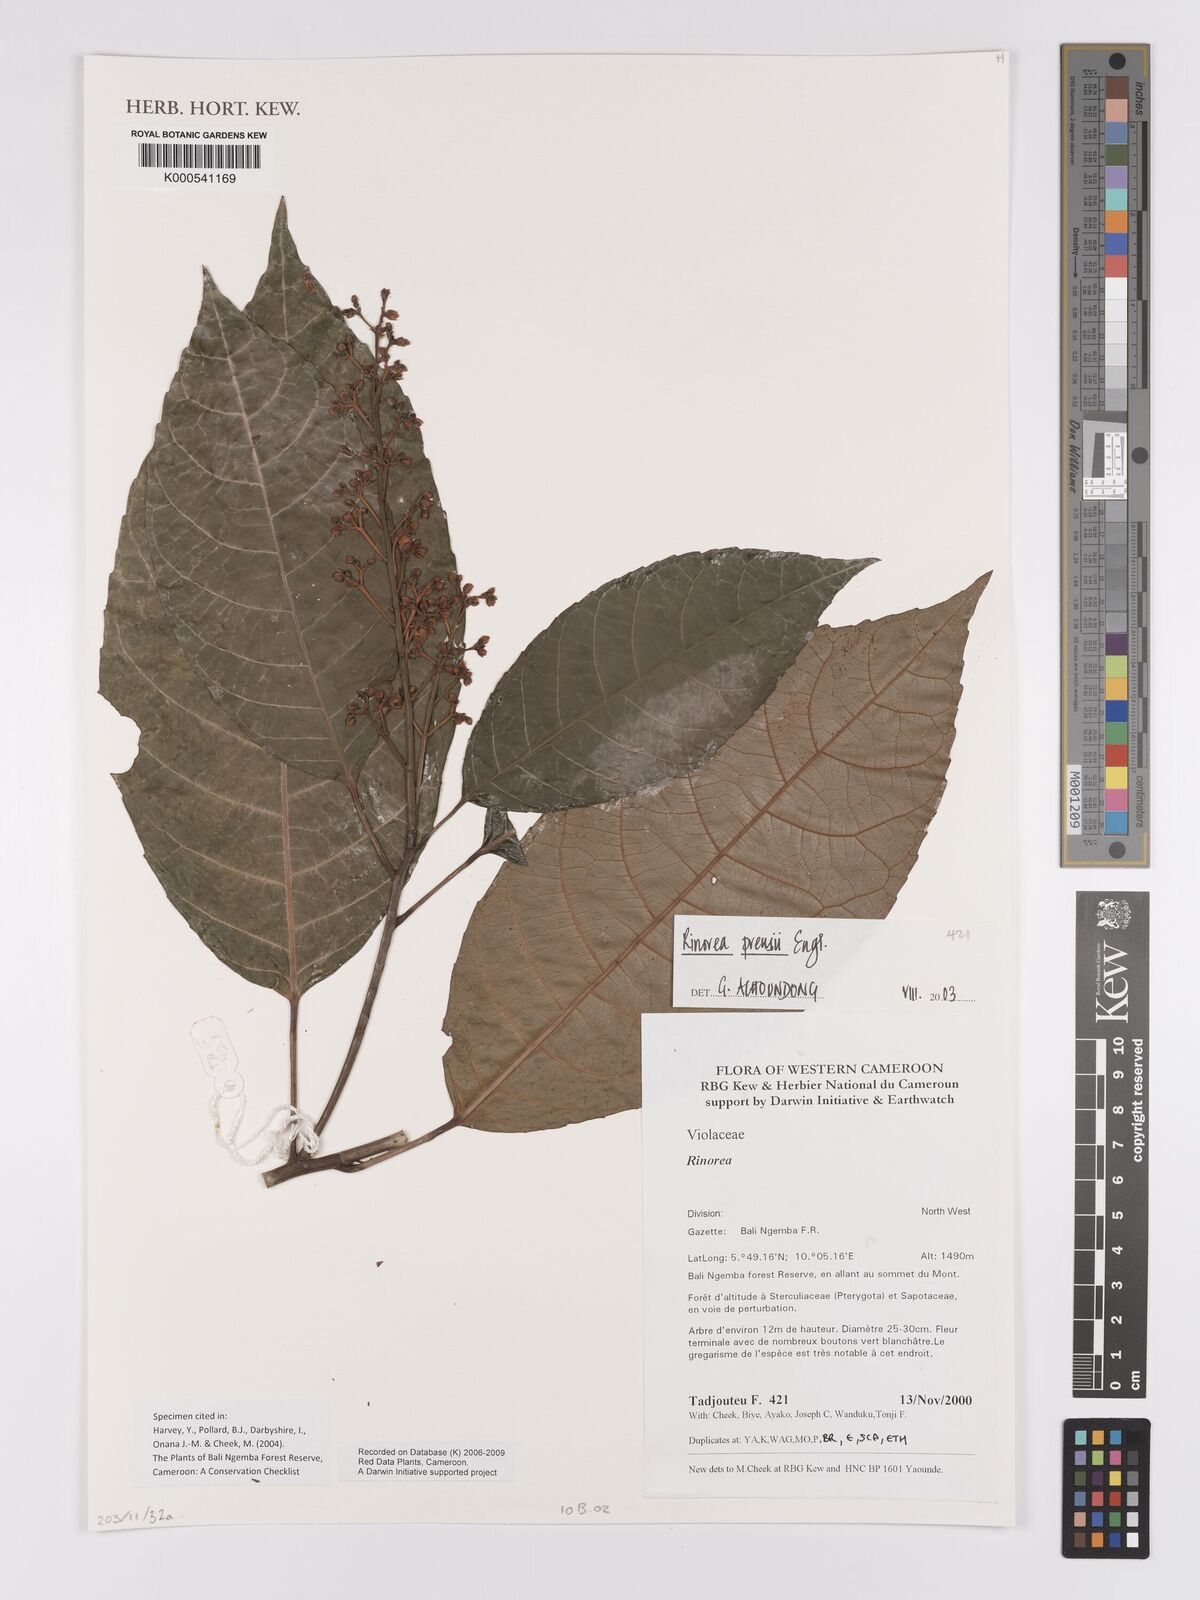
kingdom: Plantae
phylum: Tracheophyta
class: Magnoliopsida
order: Malpighiales
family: Violaceae
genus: Rinorea
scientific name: Rinorea preussii
